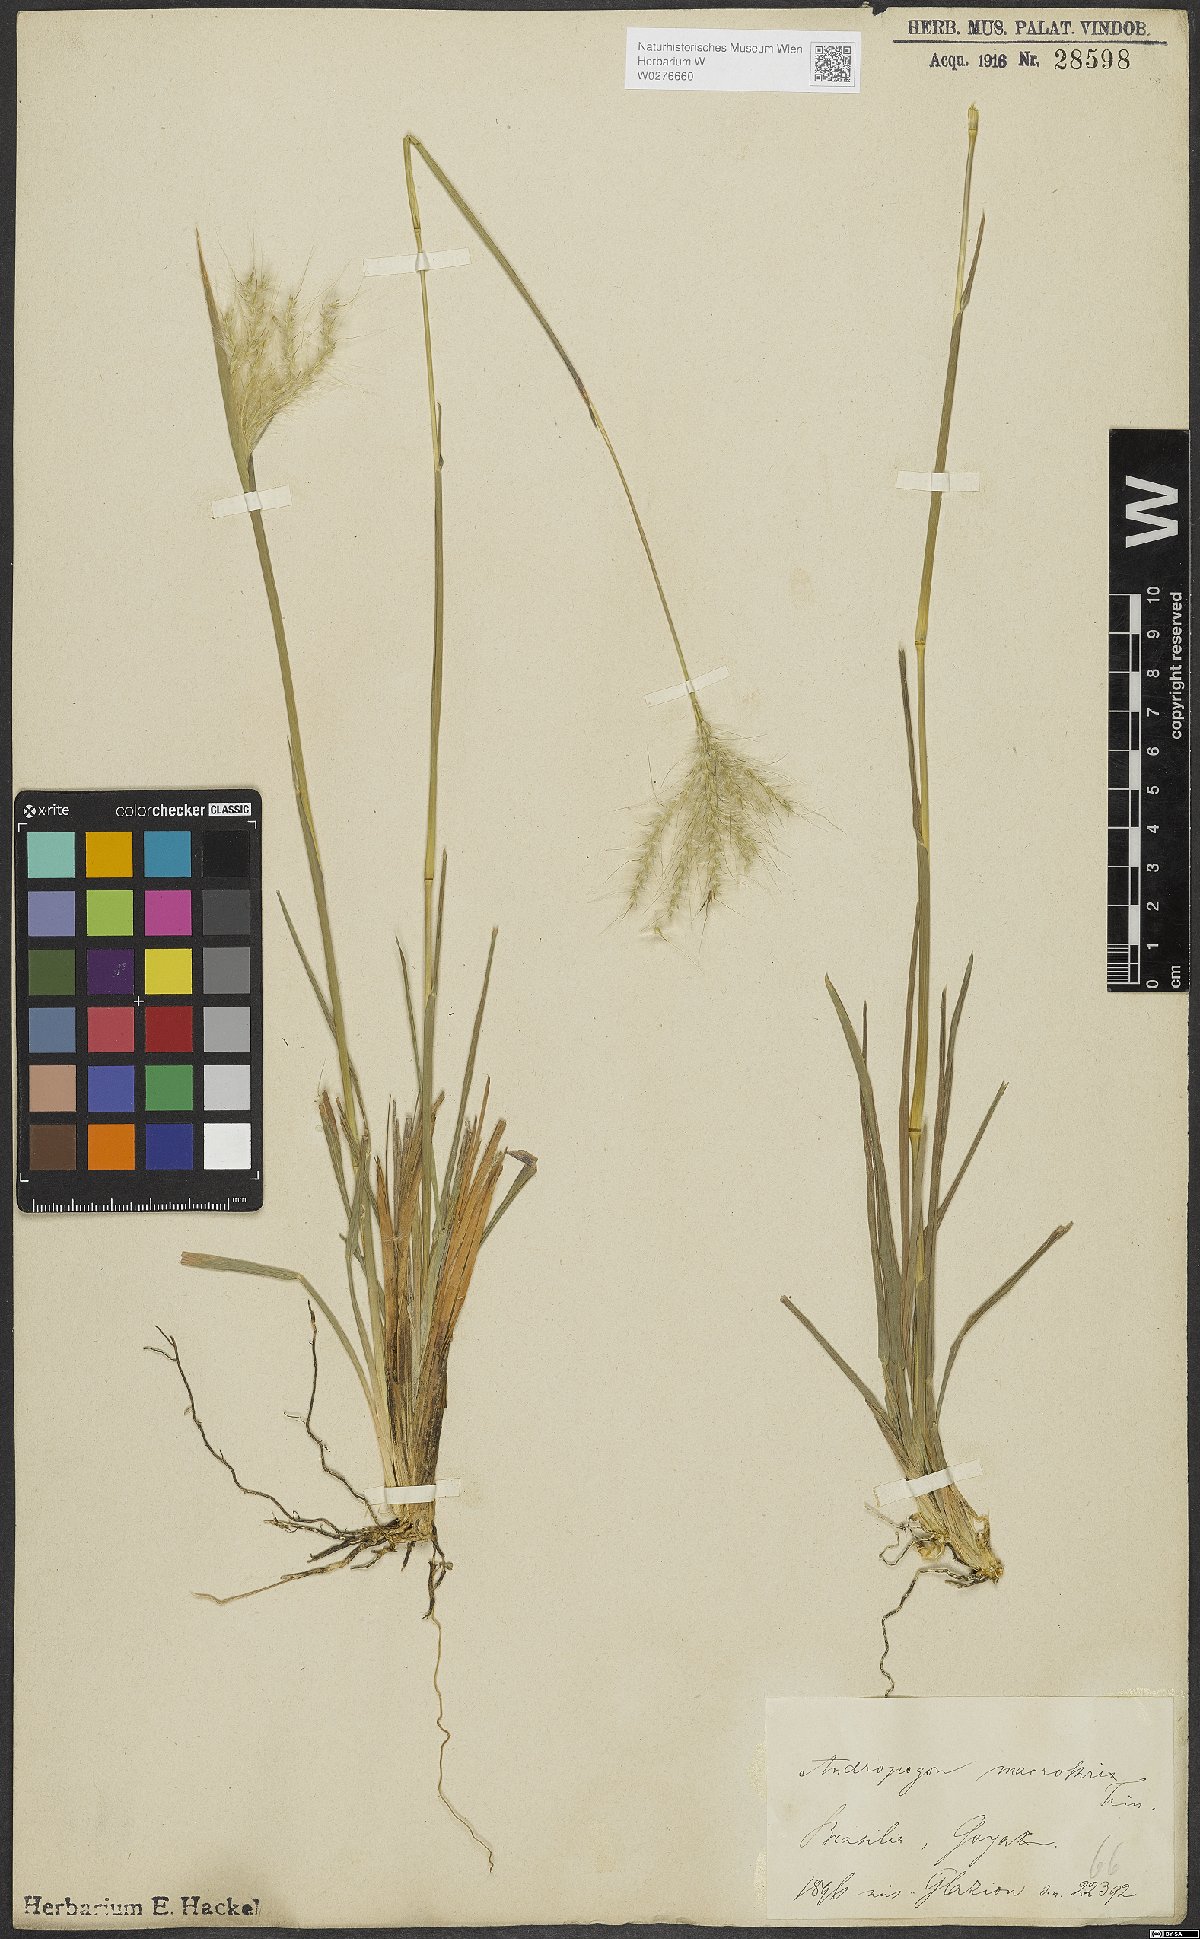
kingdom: Plantae
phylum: Tracheophyta
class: Liliopsida
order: Poales
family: Poaceae
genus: Andropogon
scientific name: Andropogon macrothrix
